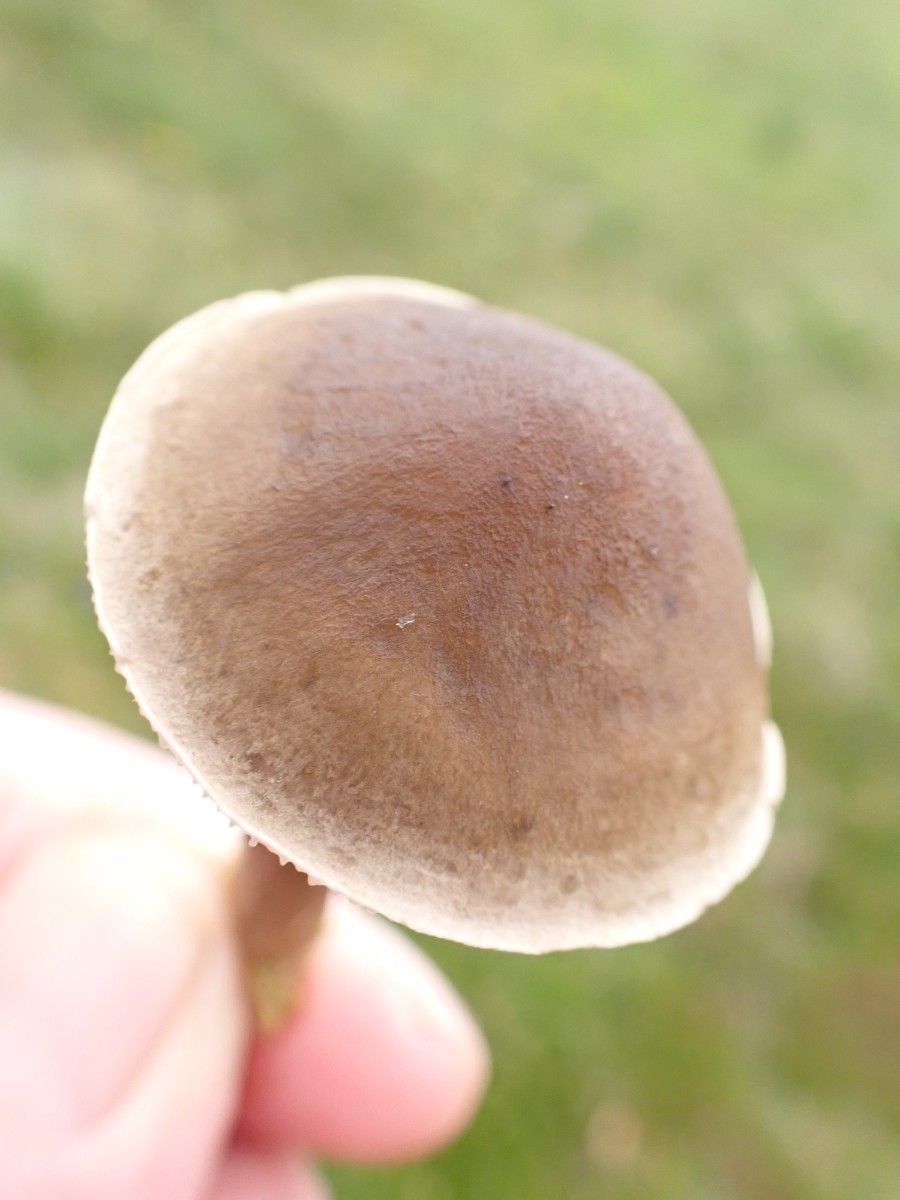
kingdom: Fungi
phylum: Basidiomycota
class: Agaricomycetes
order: Agaricales
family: Hygrophoraceae
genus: Ampulloclitocybe
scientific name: Ampulloclitocybe clavipes
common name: køllefod
